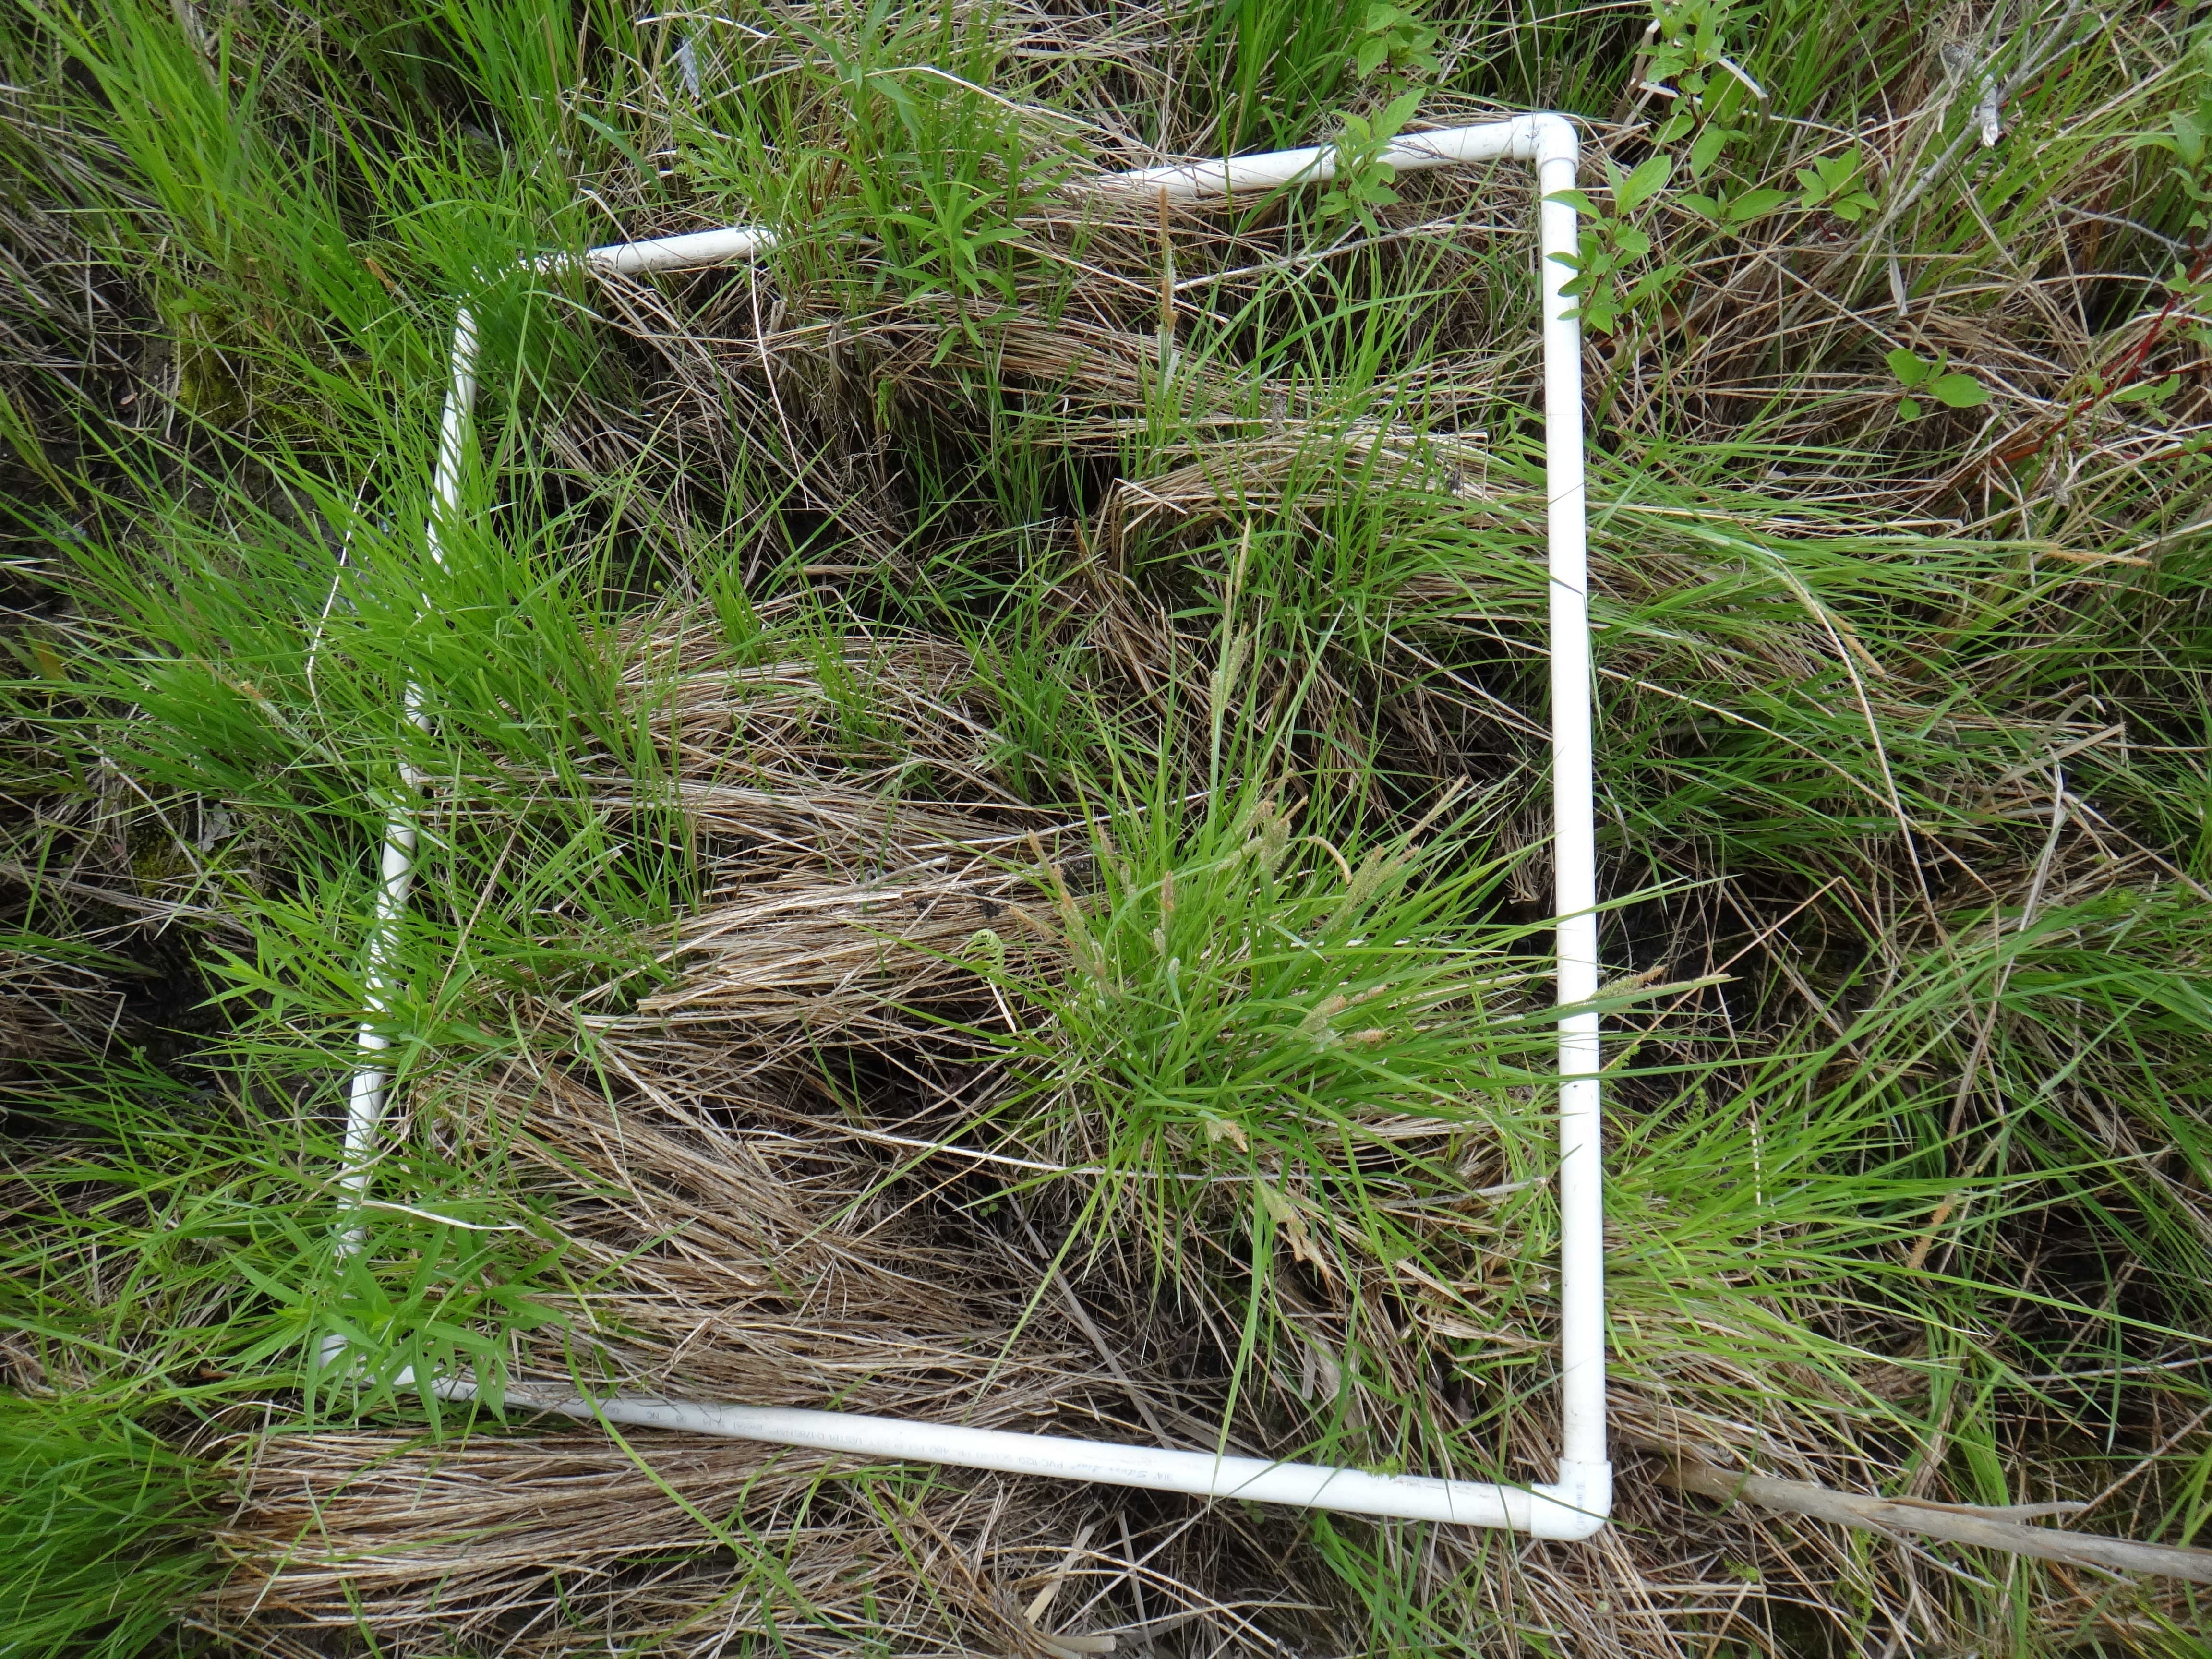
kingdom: Plantae
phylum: Tracheophyta
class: Magnoliopsida
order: Lamiales
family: Lamiaceae
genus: Lycopus
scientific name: Lycopus uniflorus
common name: Northern bugleweed
